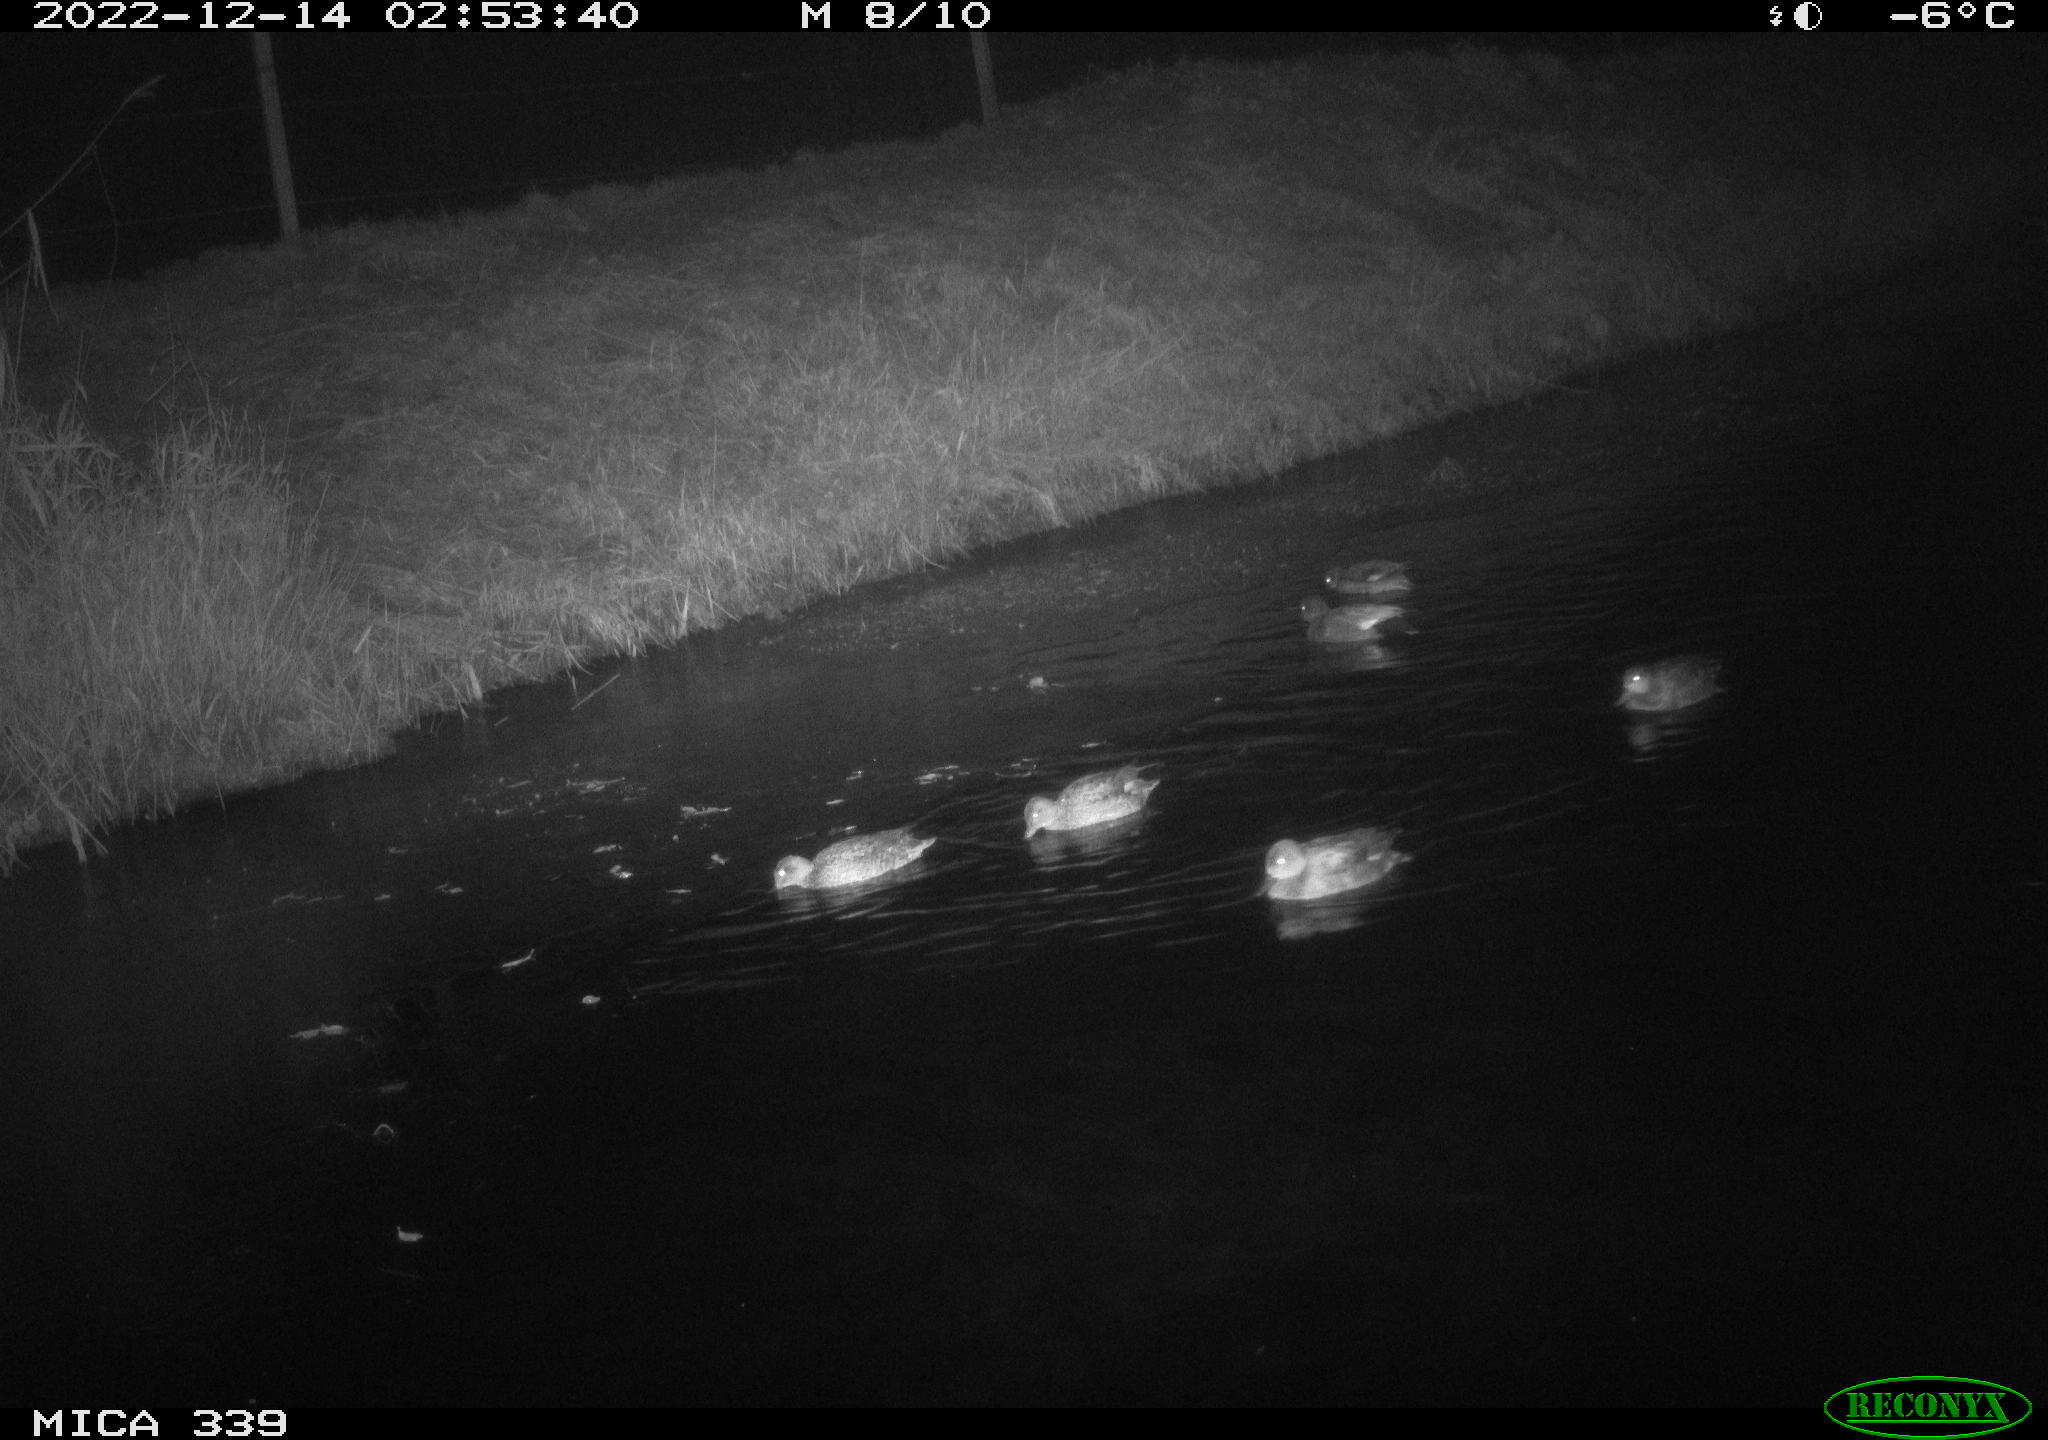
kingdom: Animalia
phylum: Chordata
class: Aves
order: Anseriformes
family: Anatidae
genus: Anas
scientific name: Anas
